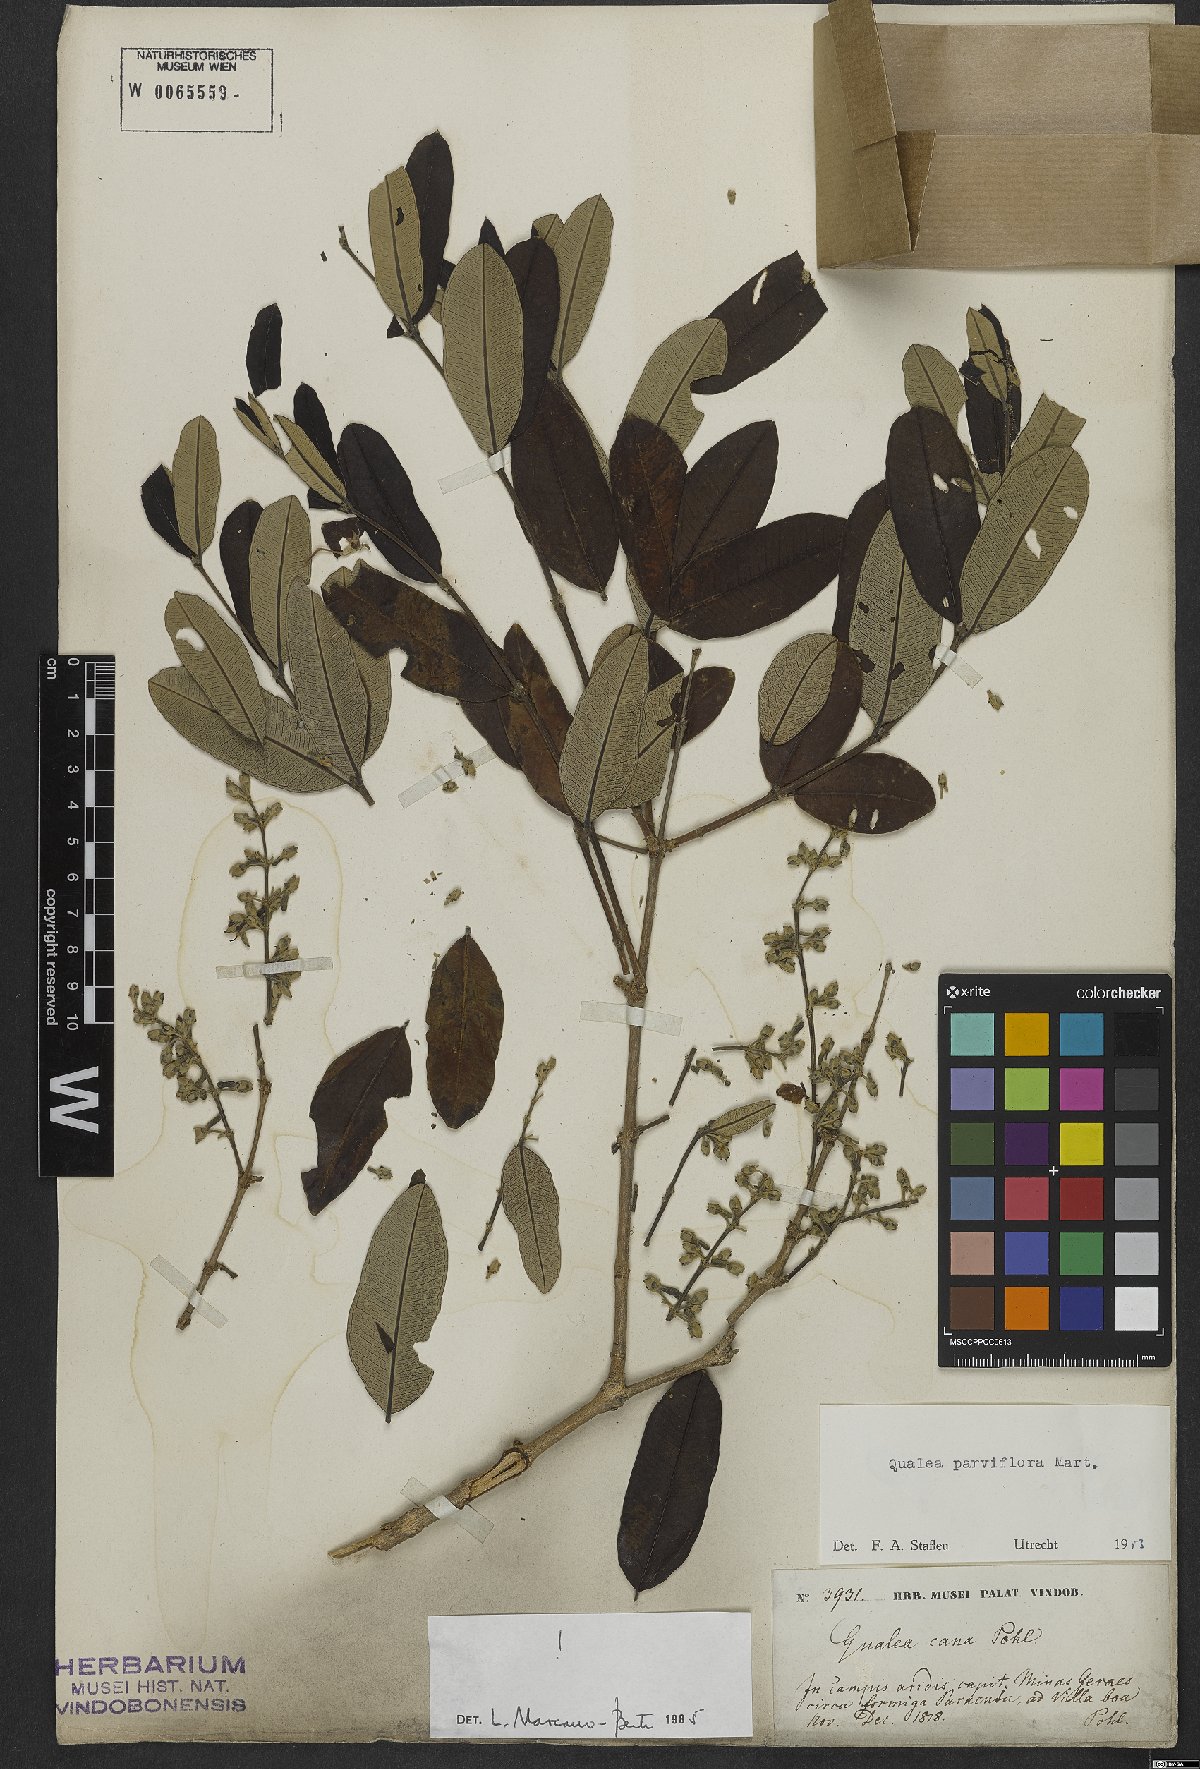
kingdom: Plantae
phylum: Tracheophyta
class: Magnoliopsida
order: Myrtales
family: Vochysiaceae
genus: Qualea
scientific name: Qualea parviflora
